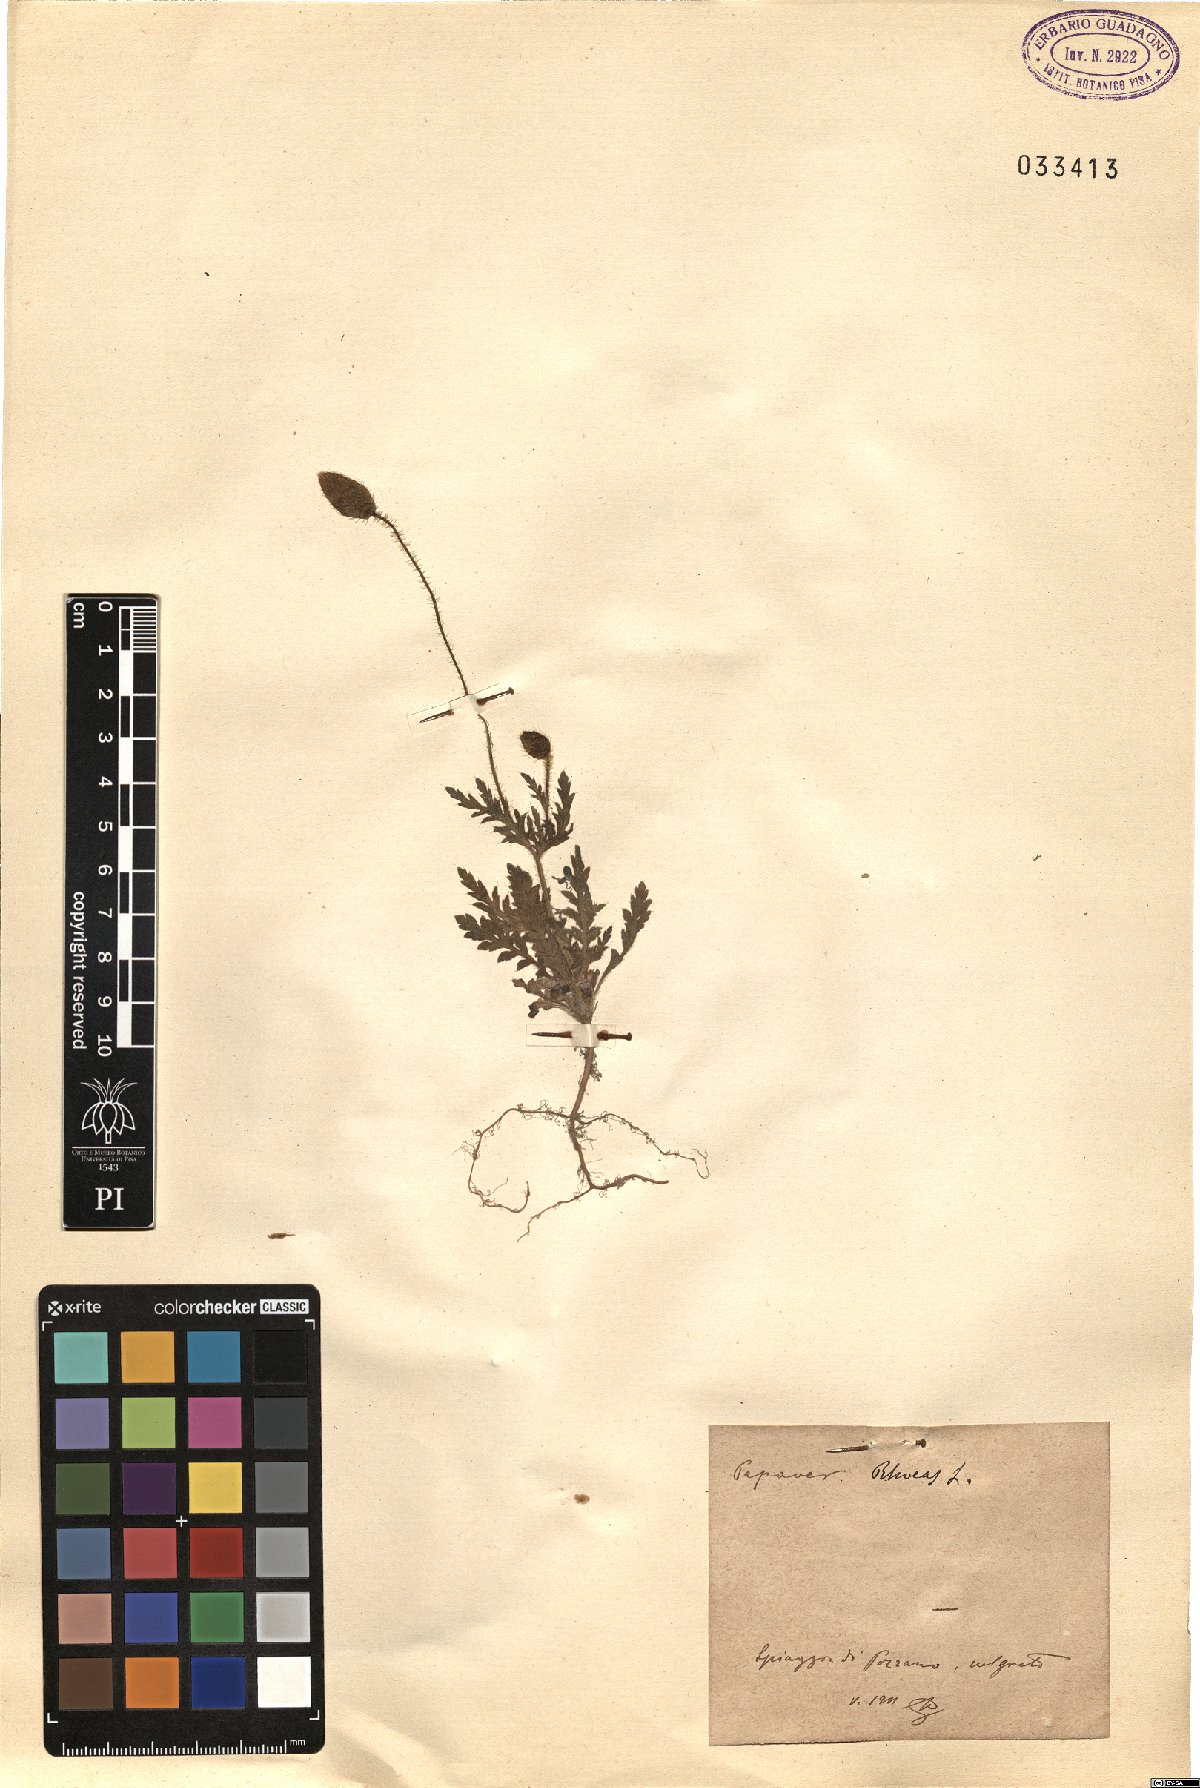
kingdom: Plantae
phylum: Tracheophyta
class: Magnoliopsida
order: Ranunculales
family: Papaveraceae
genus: Papaver
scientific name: Papaver rhoeas
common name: Corn poppy
